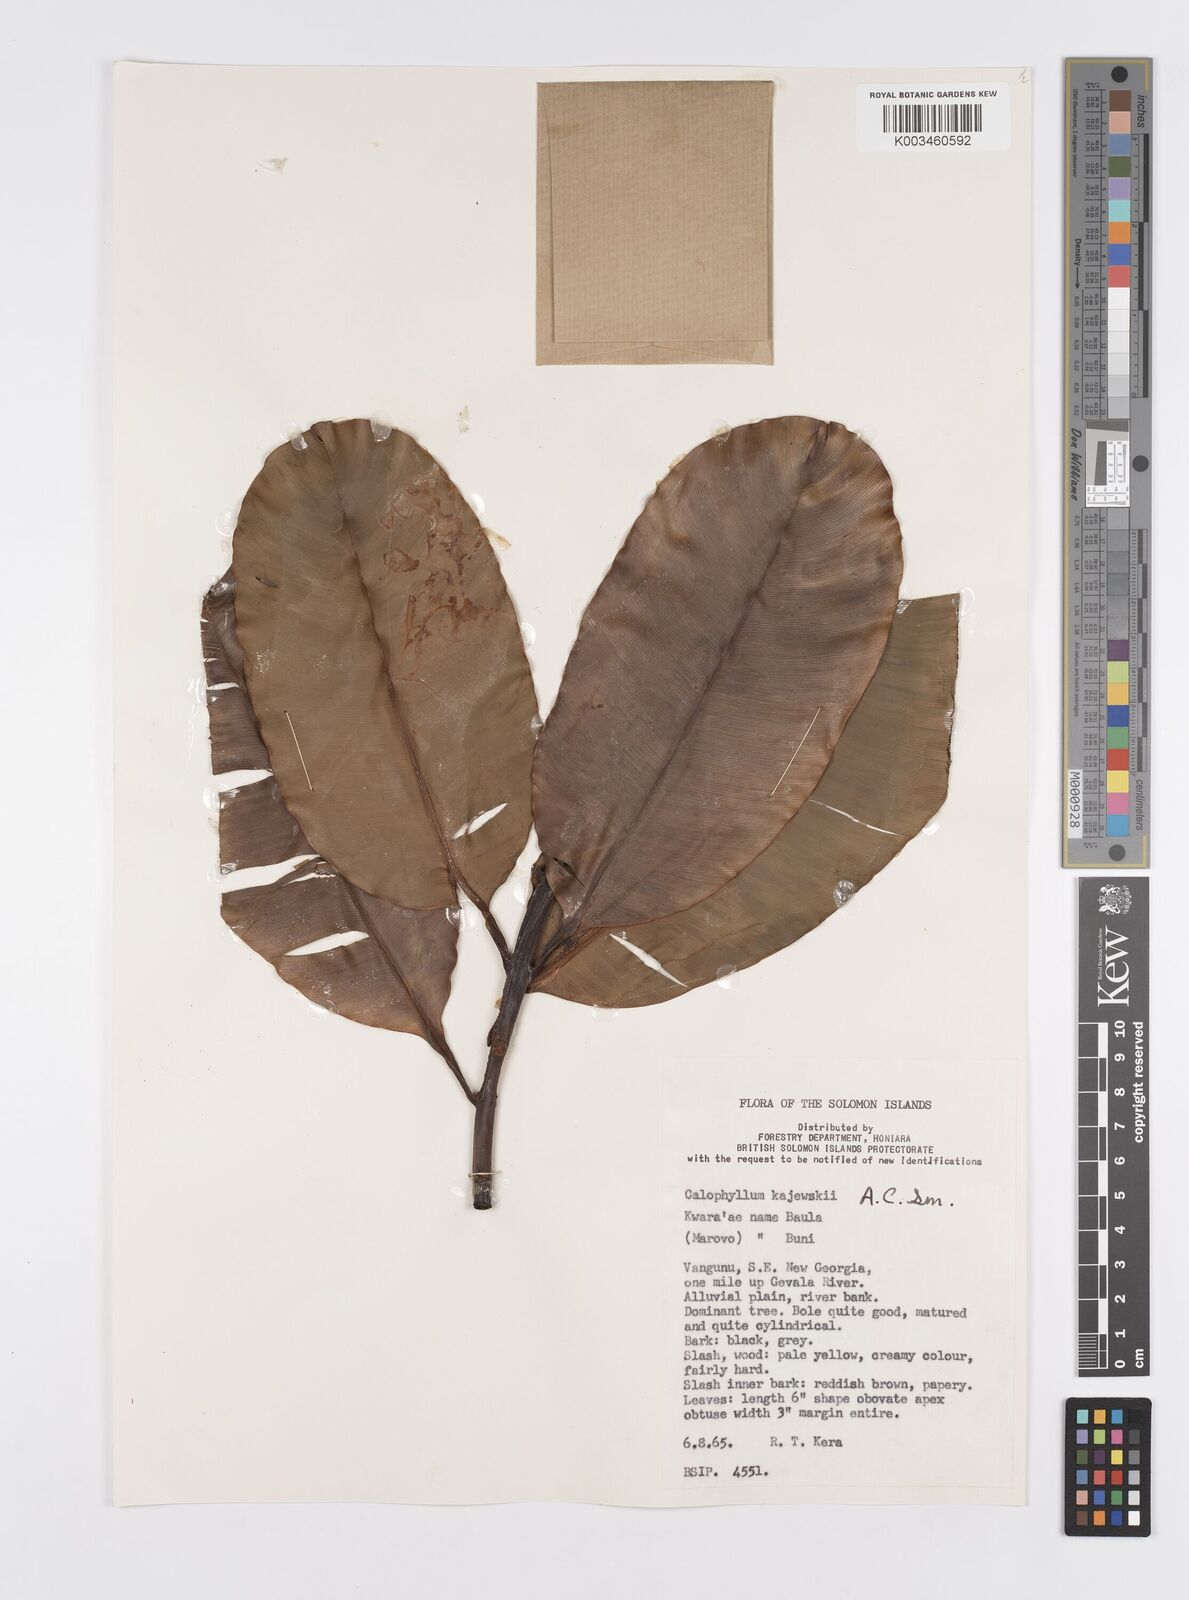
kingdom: Plantae
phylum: Tracheophyta
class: Magnoliopsida
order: Malpighiales
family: Calophyllaceae
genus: Calophyllum
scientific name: Calophyllum peekelii
